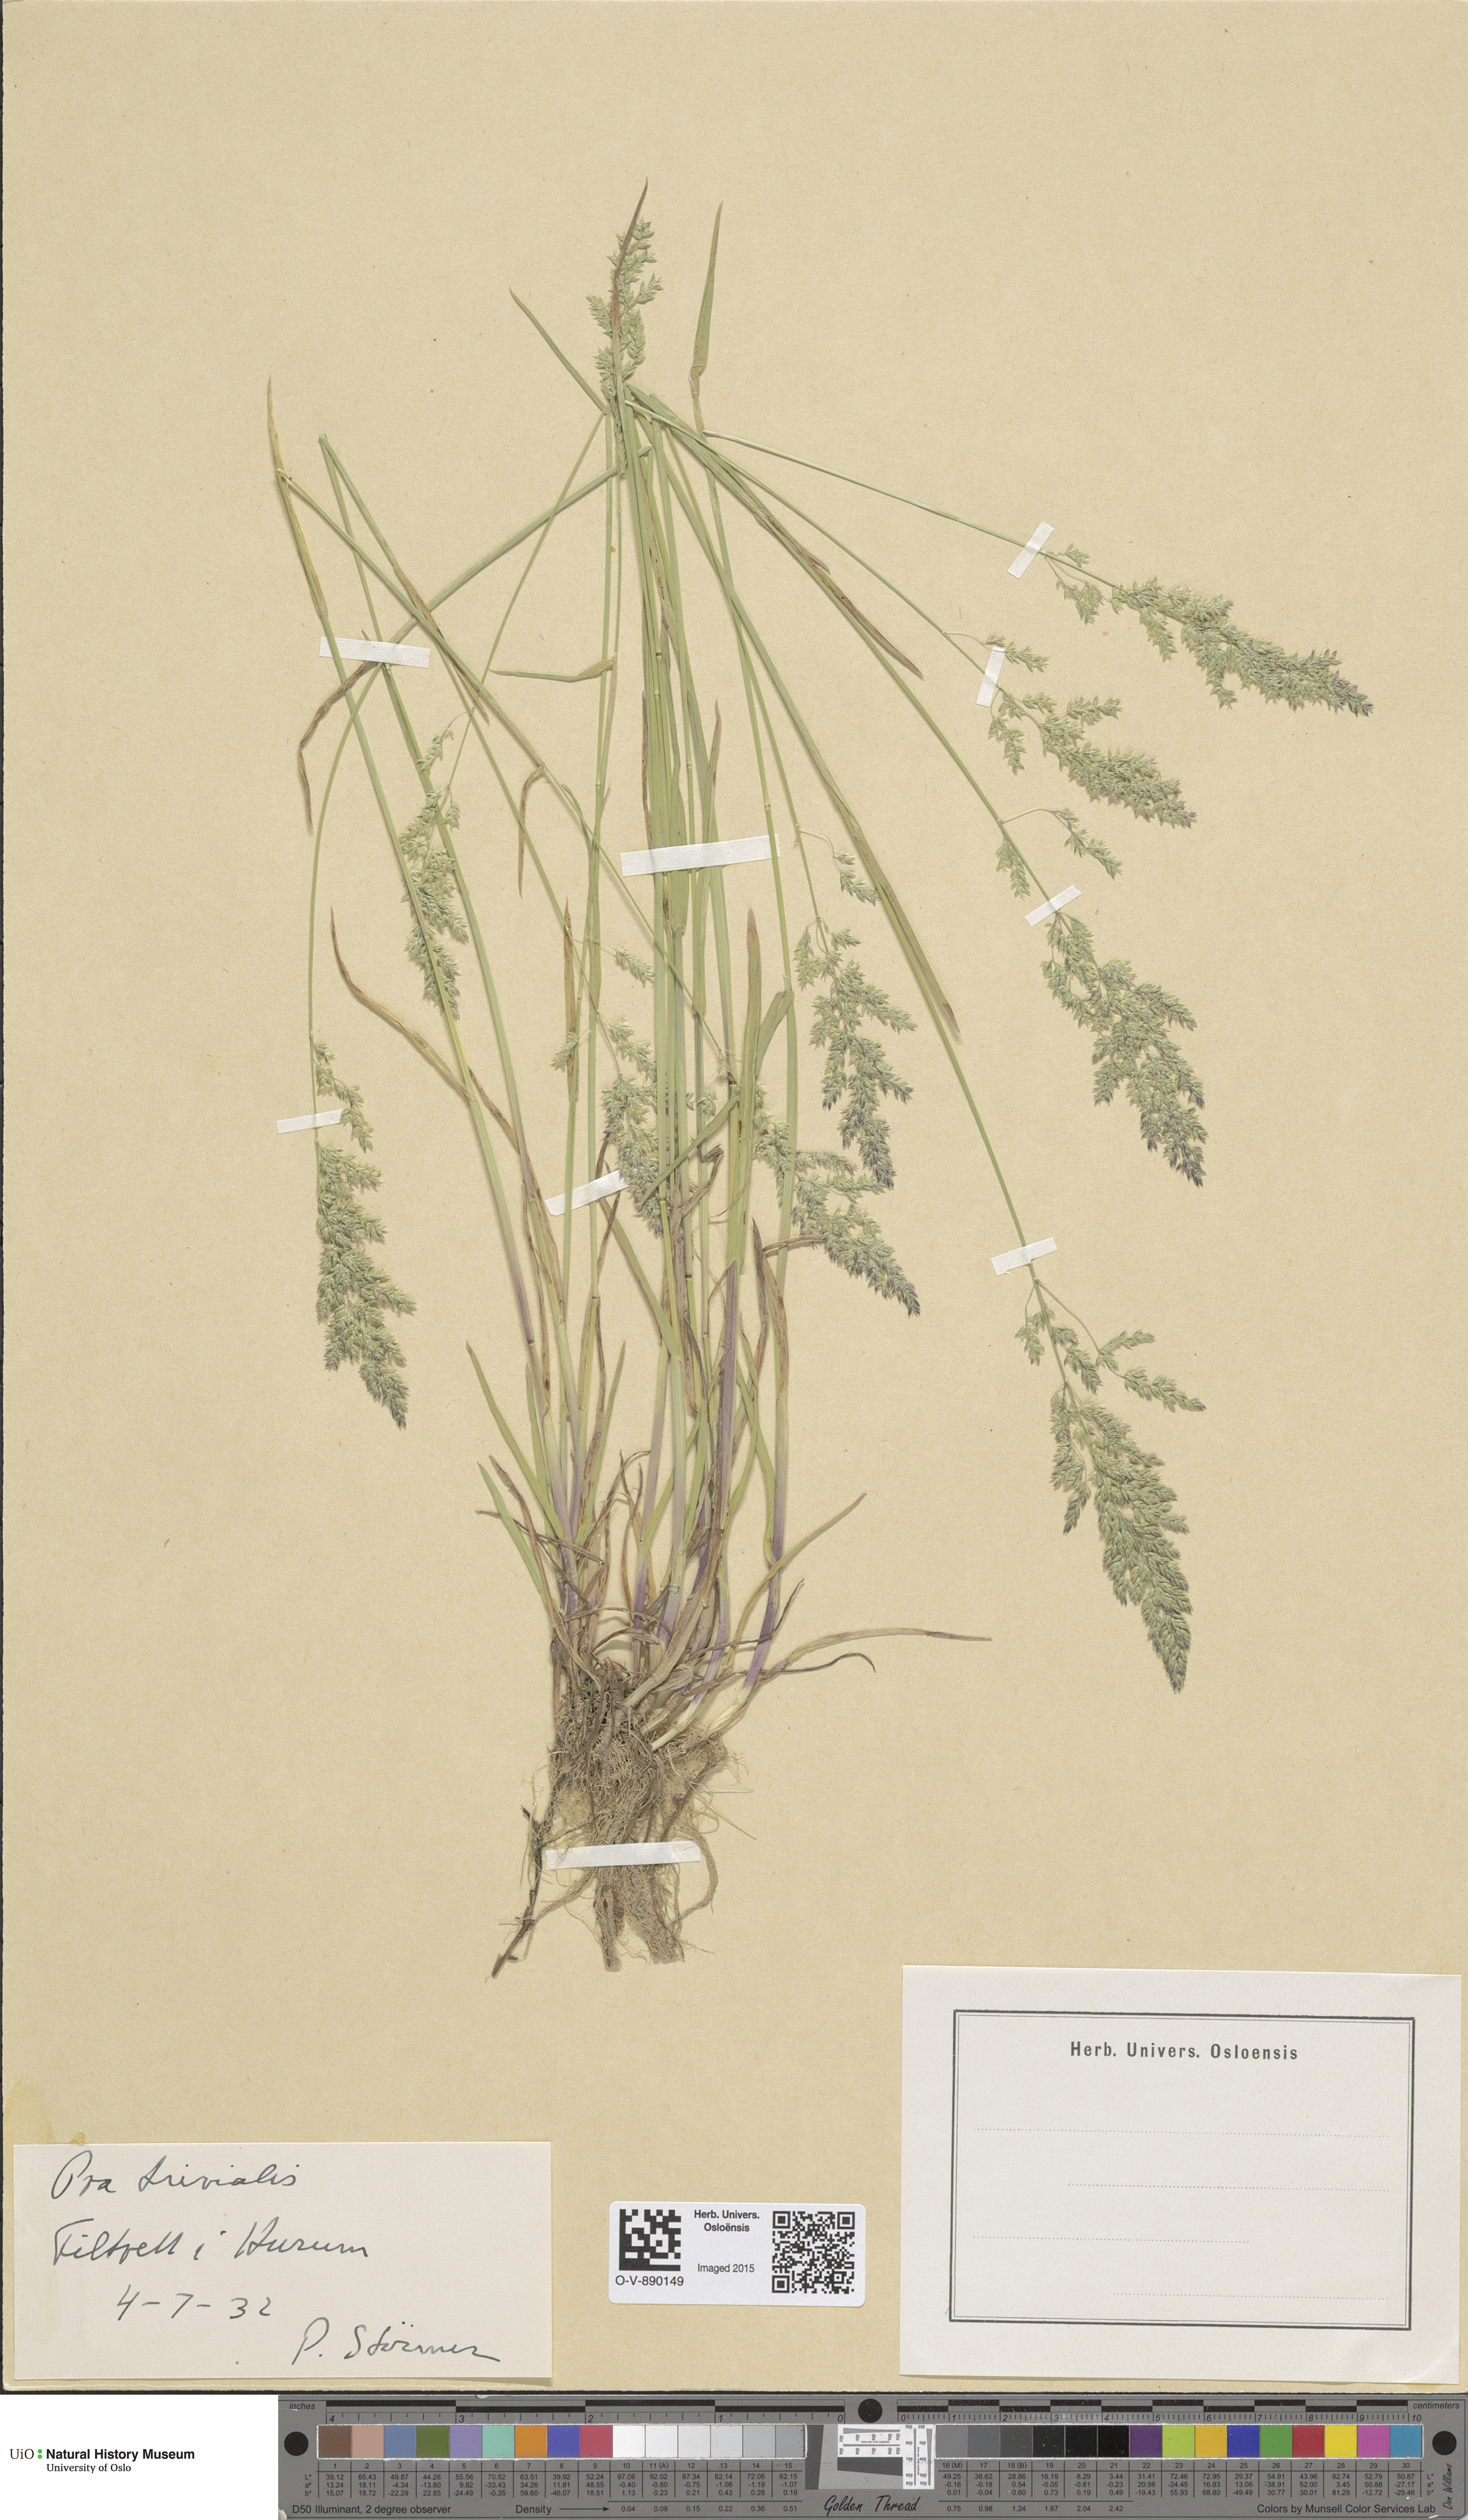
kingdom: Plantae
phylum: Tracheophyta
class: Liliopsida
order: Poales
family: Poaceae
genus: Poa
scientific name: Poa trivialis
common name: Rough bluegrass
